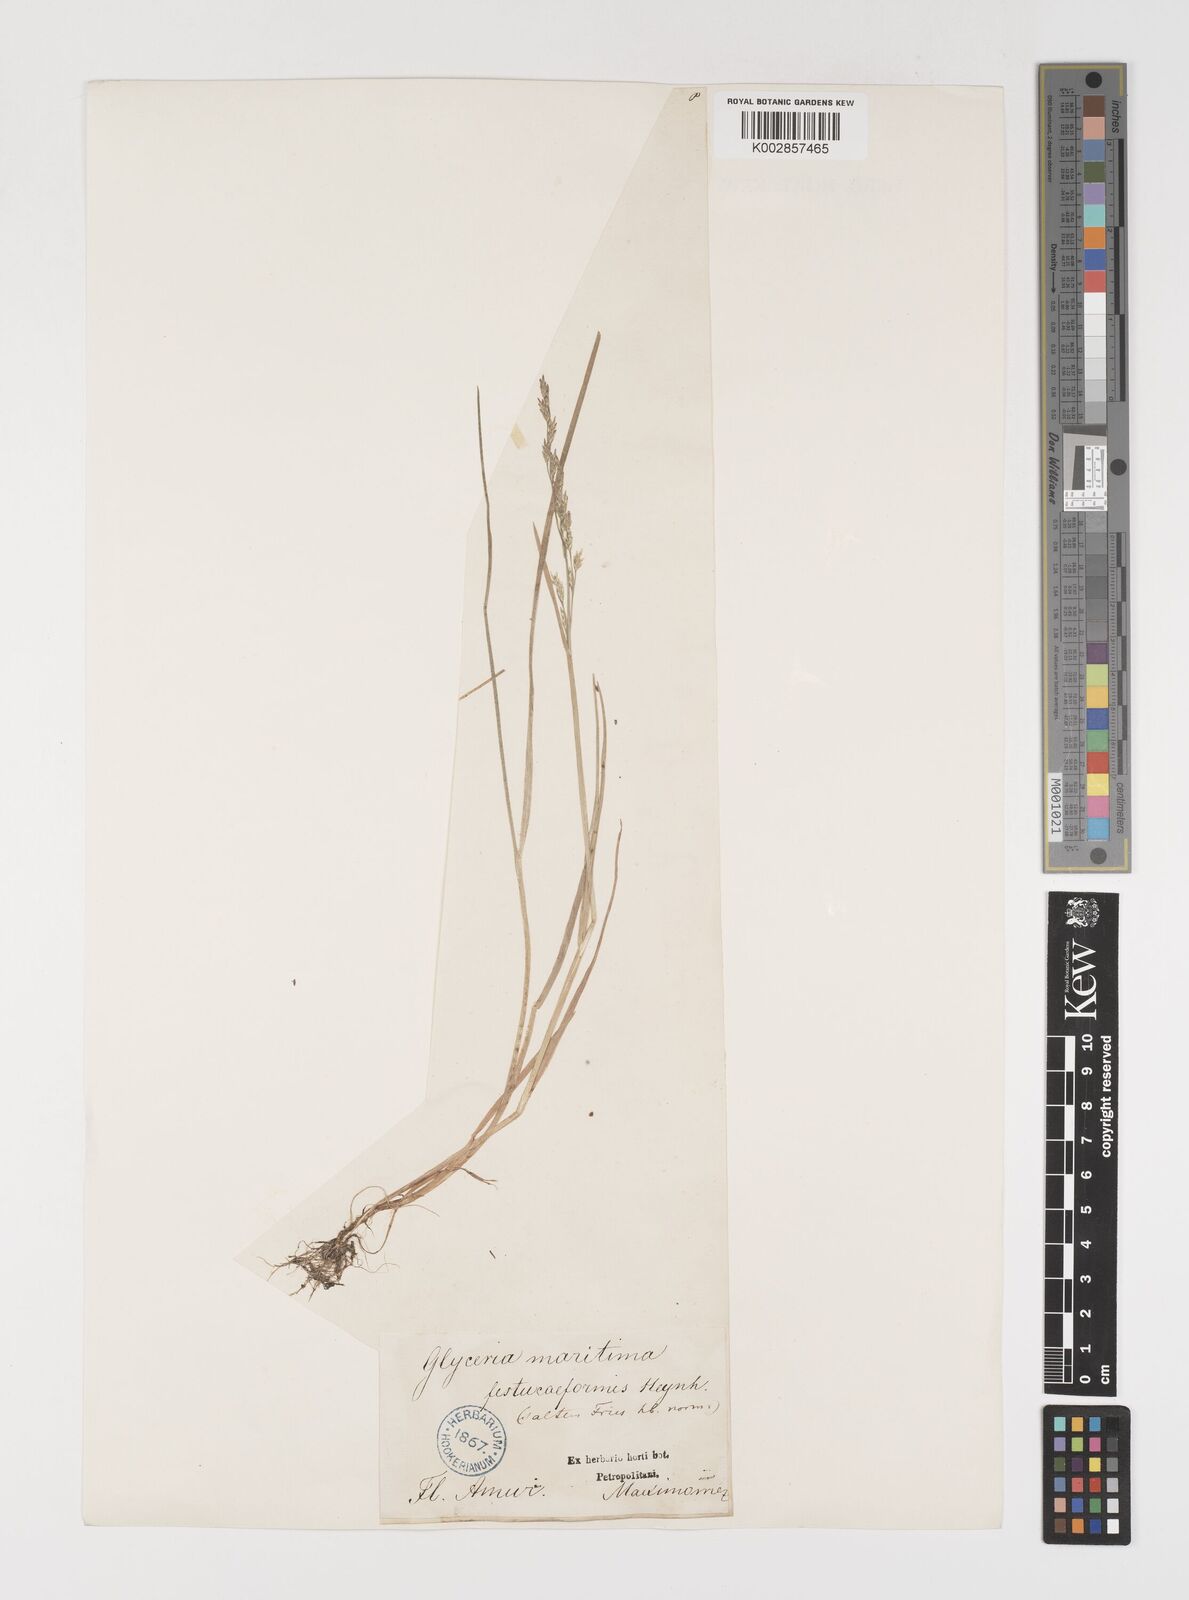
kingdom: Plantae
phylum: Tracheophyta
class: Liliopsida
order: Poales
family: Poaceae
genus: Puccinellia
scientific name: Puccinellia
